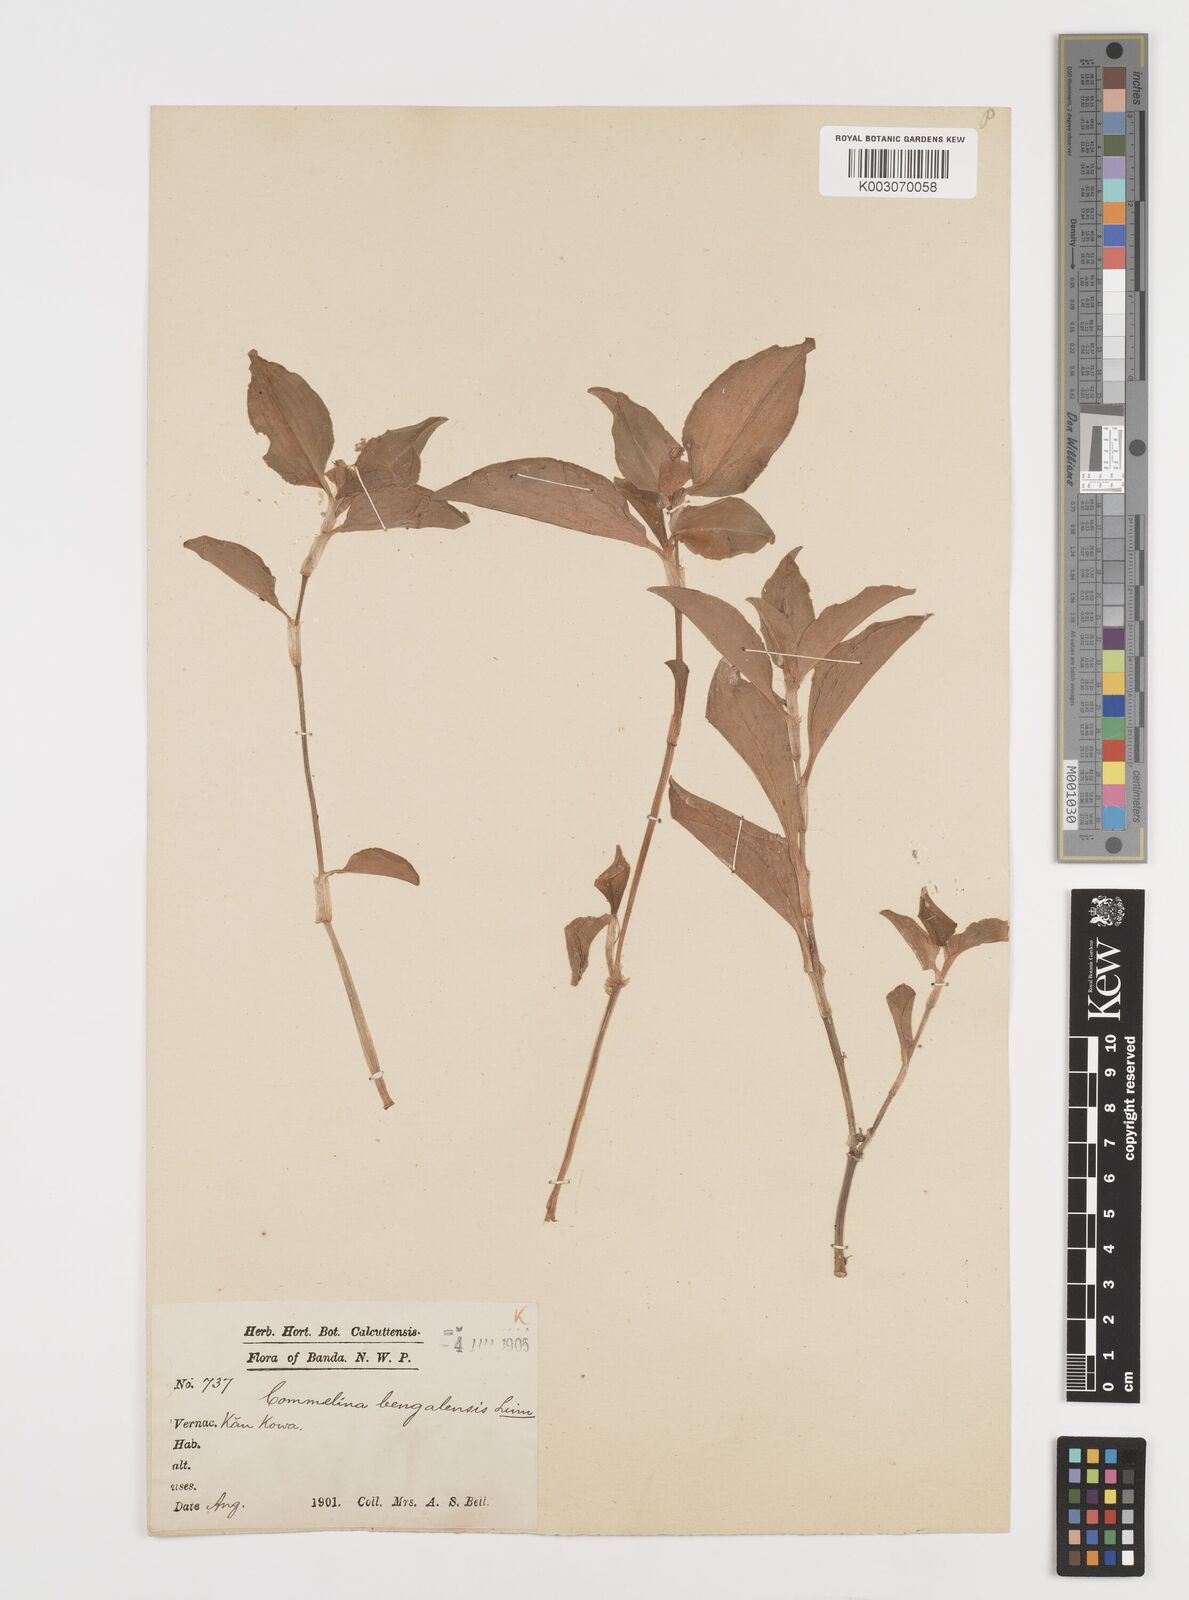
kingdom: Plantae
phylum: Tracheophyta
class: Liliopsida
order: Commelinales
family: Commelinaceae
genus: Commelina
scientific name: Commelina benghalensis
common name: Jio
